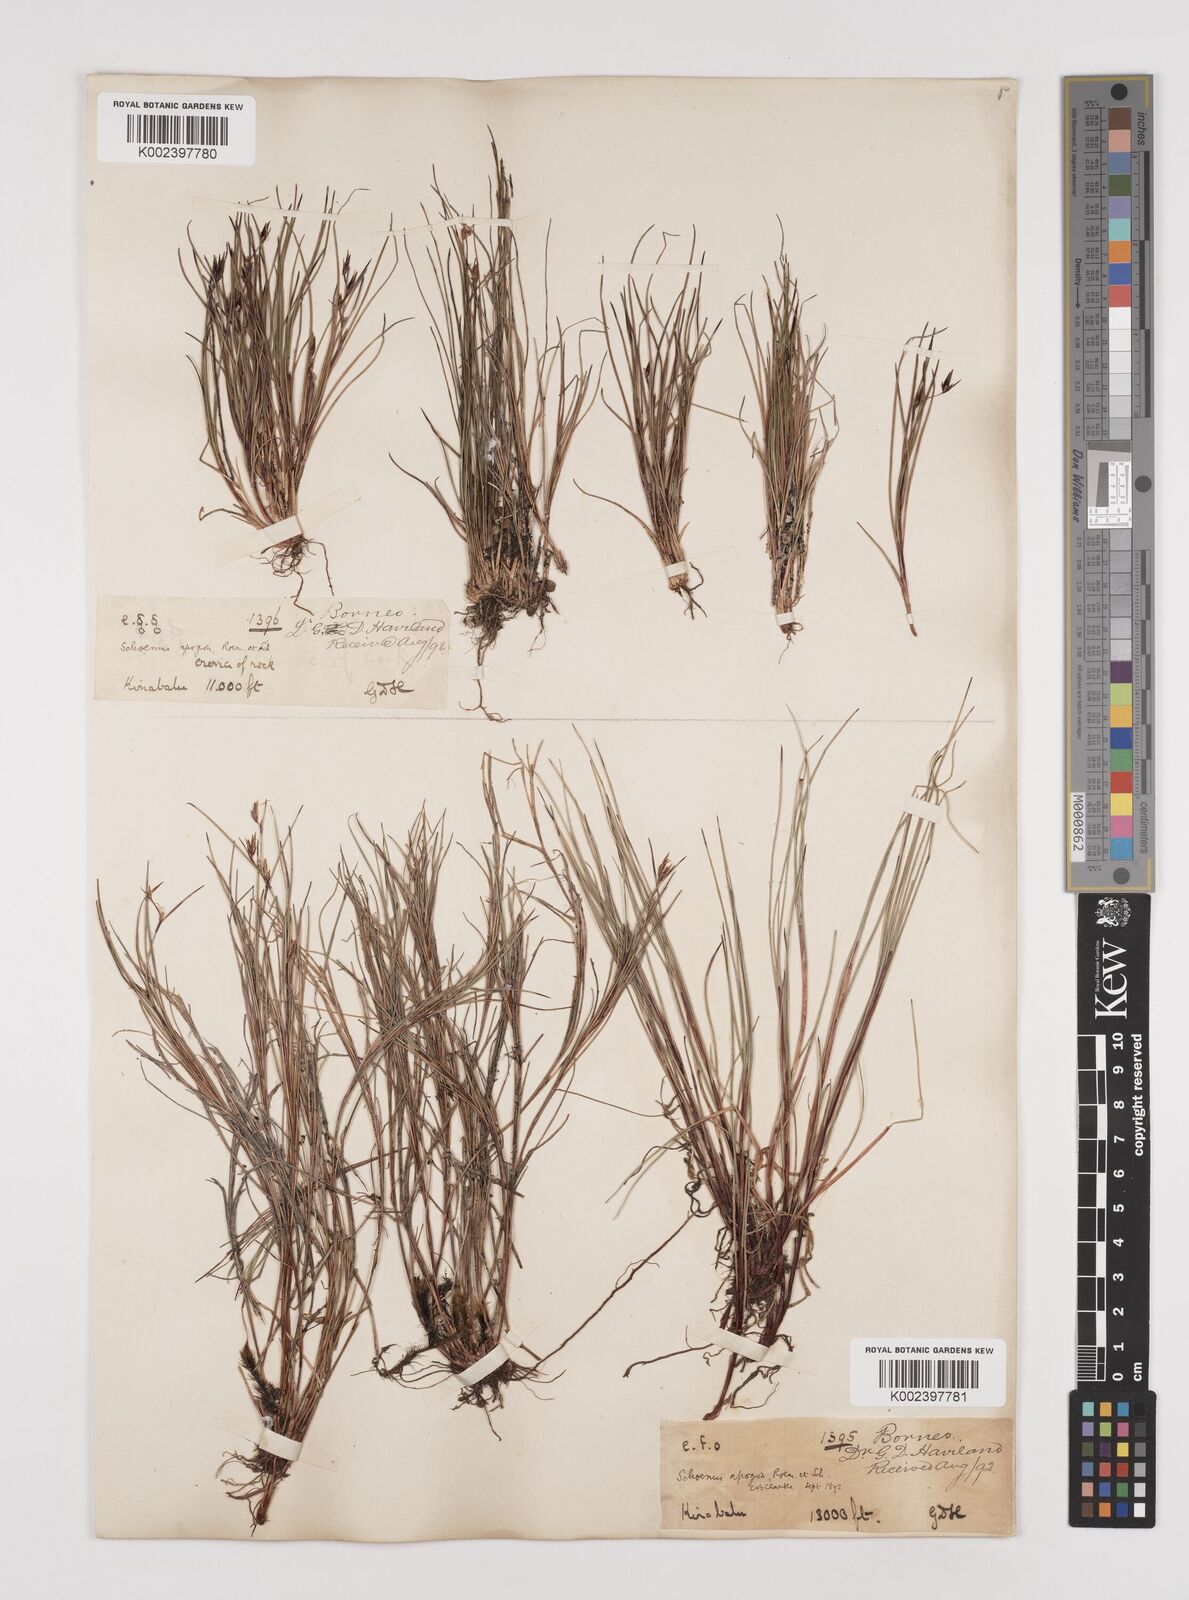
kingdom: Plantae
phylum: Tracheophyta
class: Liliopsida
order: Poales
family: Cyperaceae
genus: Schoenus
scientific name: Schoenus curvulus
